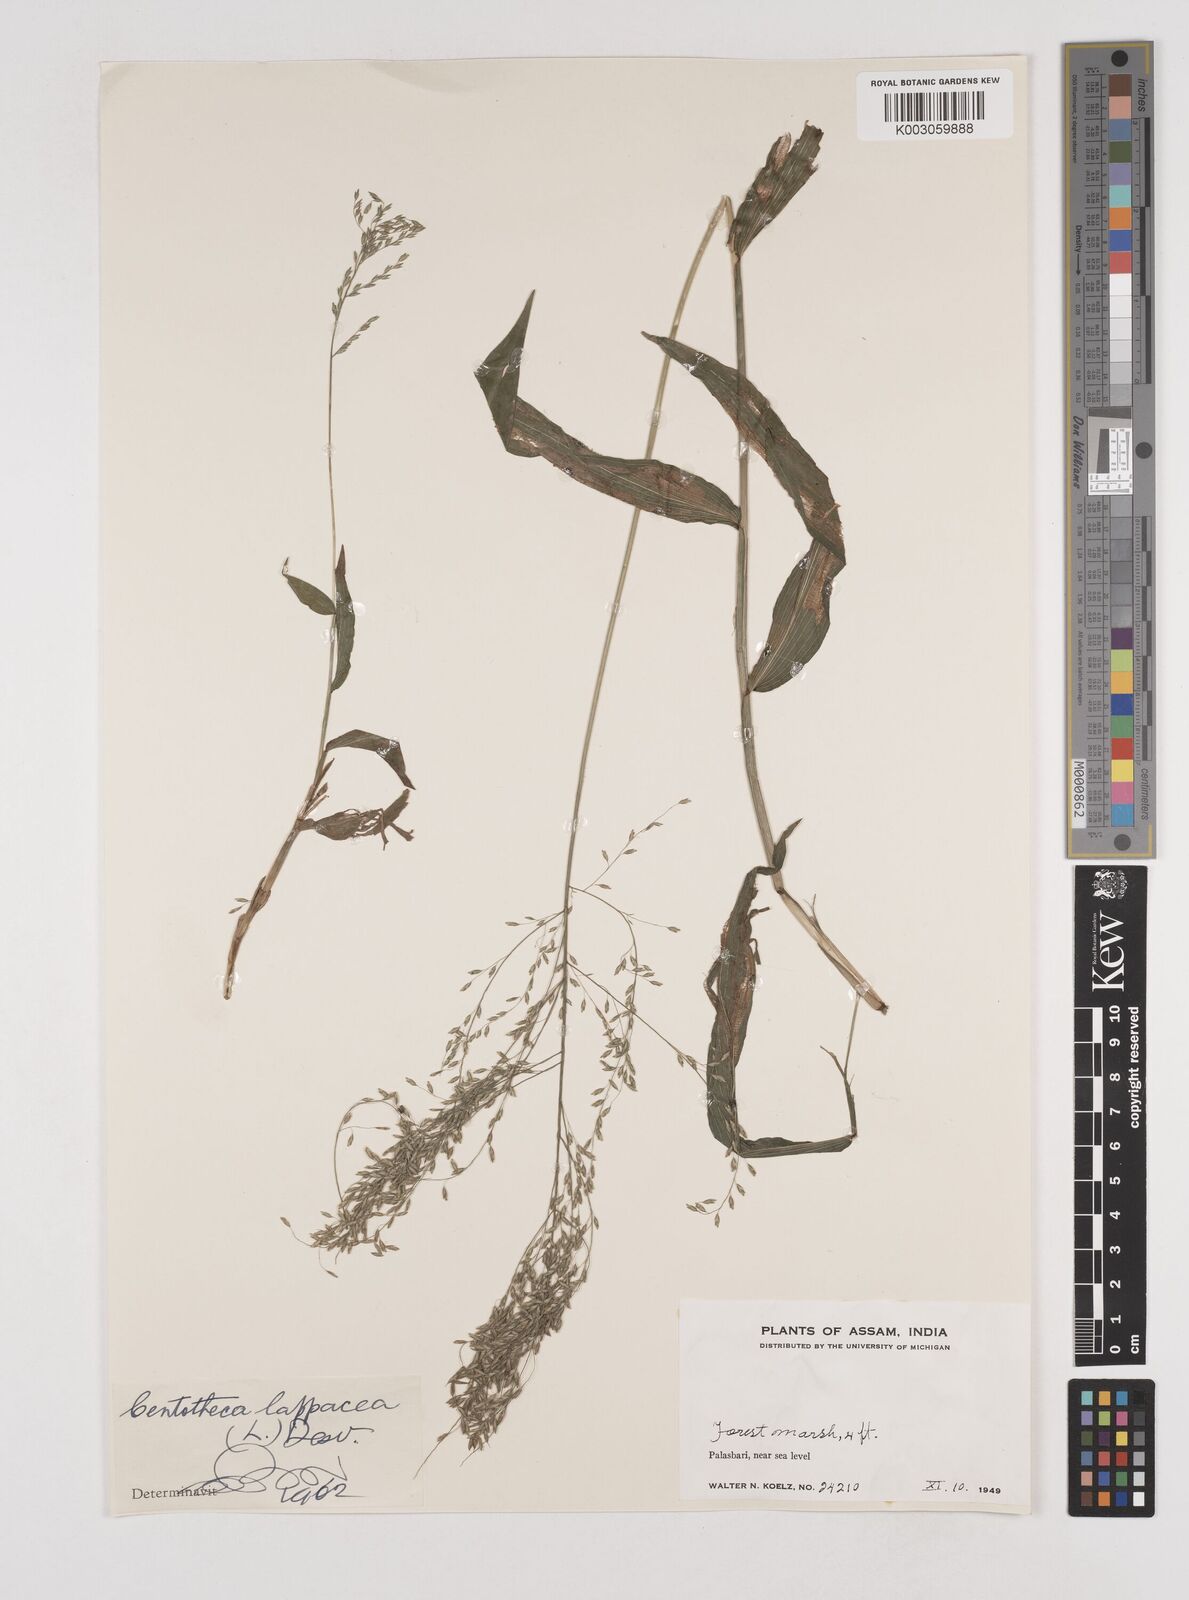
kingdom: Plantae
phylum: Tracheophyta
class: Liliopsida
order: Poales
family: Poaceae
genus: Centotheca
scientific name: Centotheca lappacea
